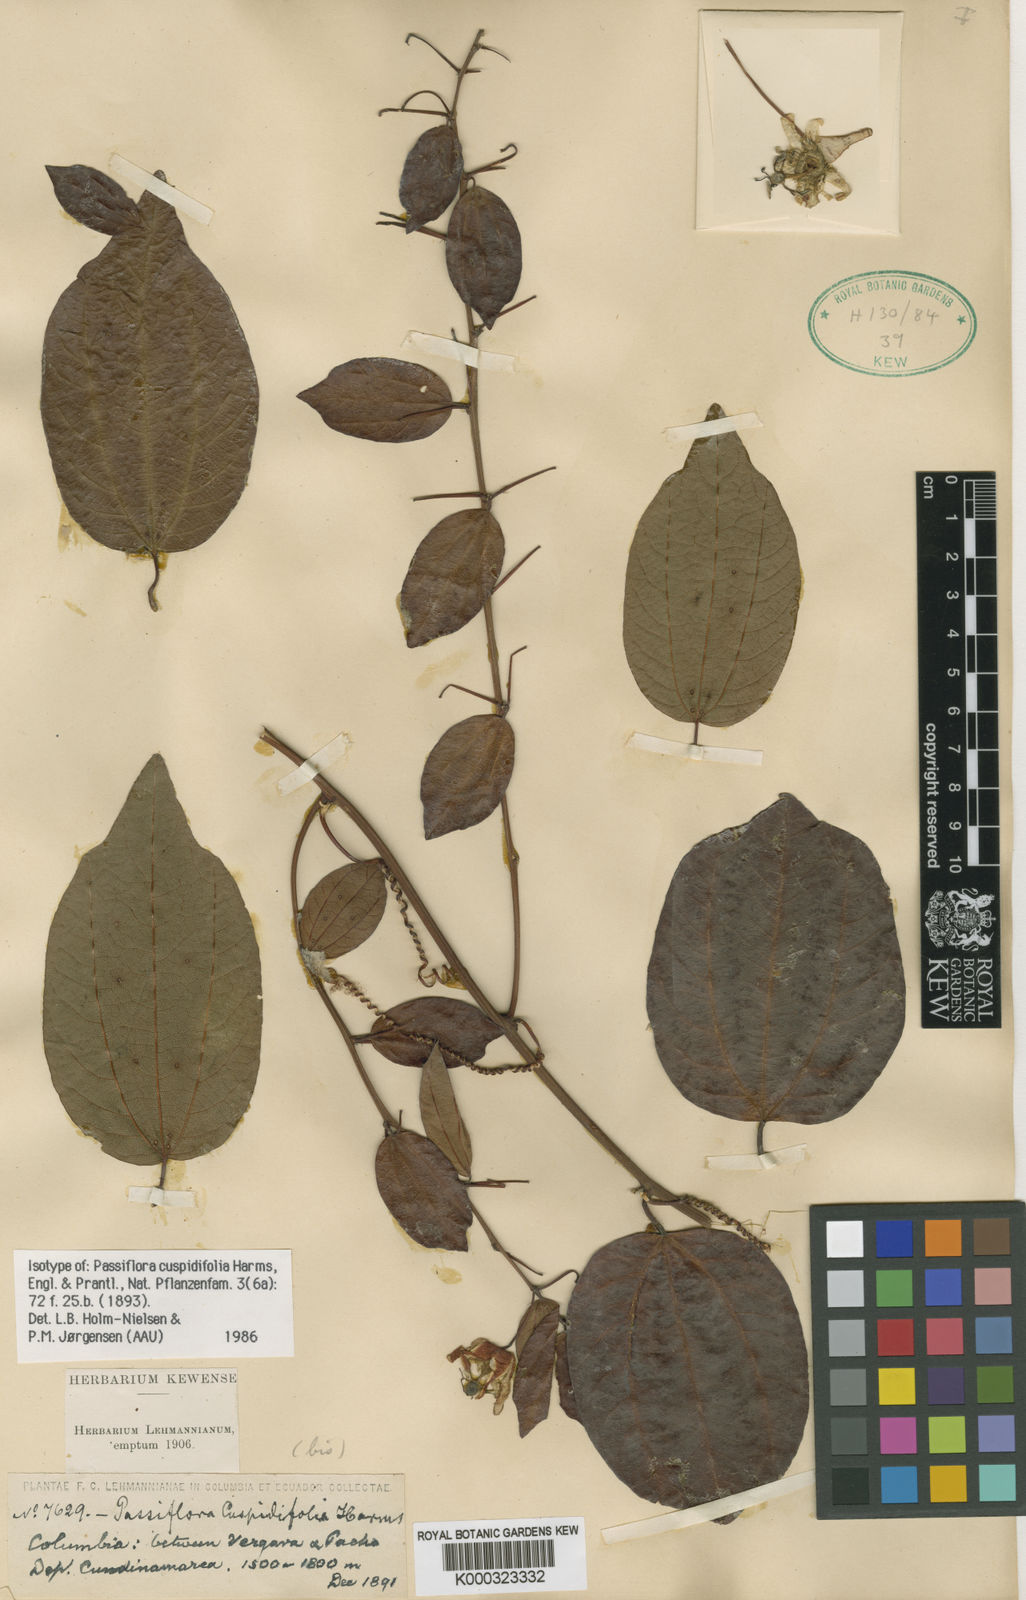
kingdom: Plantae
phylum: Tracheophyta
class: Magnoliopsida
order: Malpighiales
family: Passifloraceae
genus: Passiflora
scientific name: Passiflora cuspidifolia
